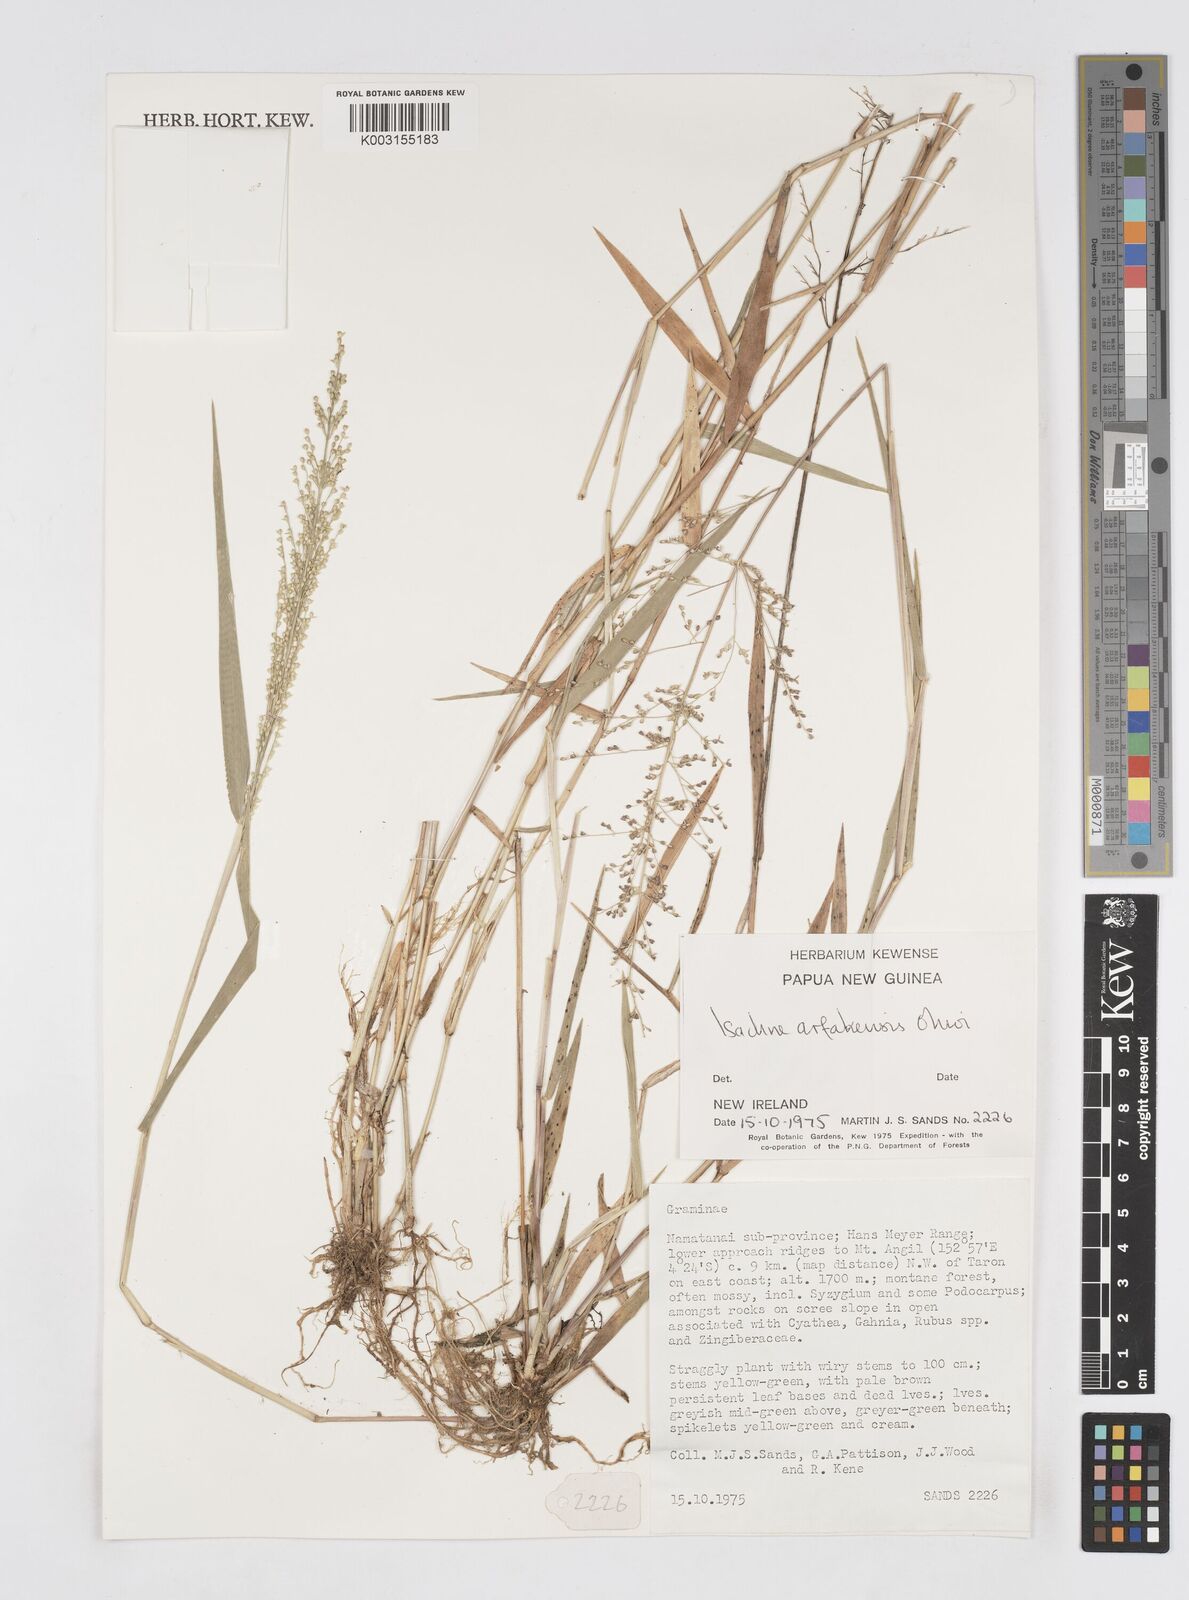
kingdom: Plantae
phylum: Tracheophyta
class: Liliopsida
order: Poales
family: Poaceae
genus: Isachne
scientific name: Isachne arfakensis
